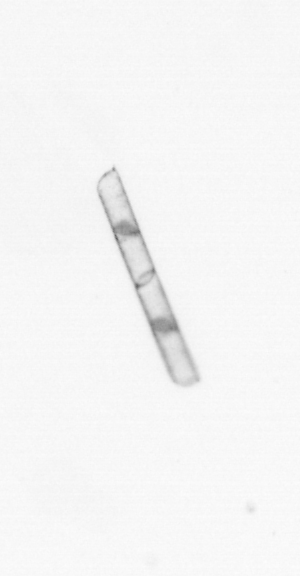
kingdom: Chromista
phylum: Ochrophyta
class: Bacillariophyceae
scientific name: Bacillariophyceae
